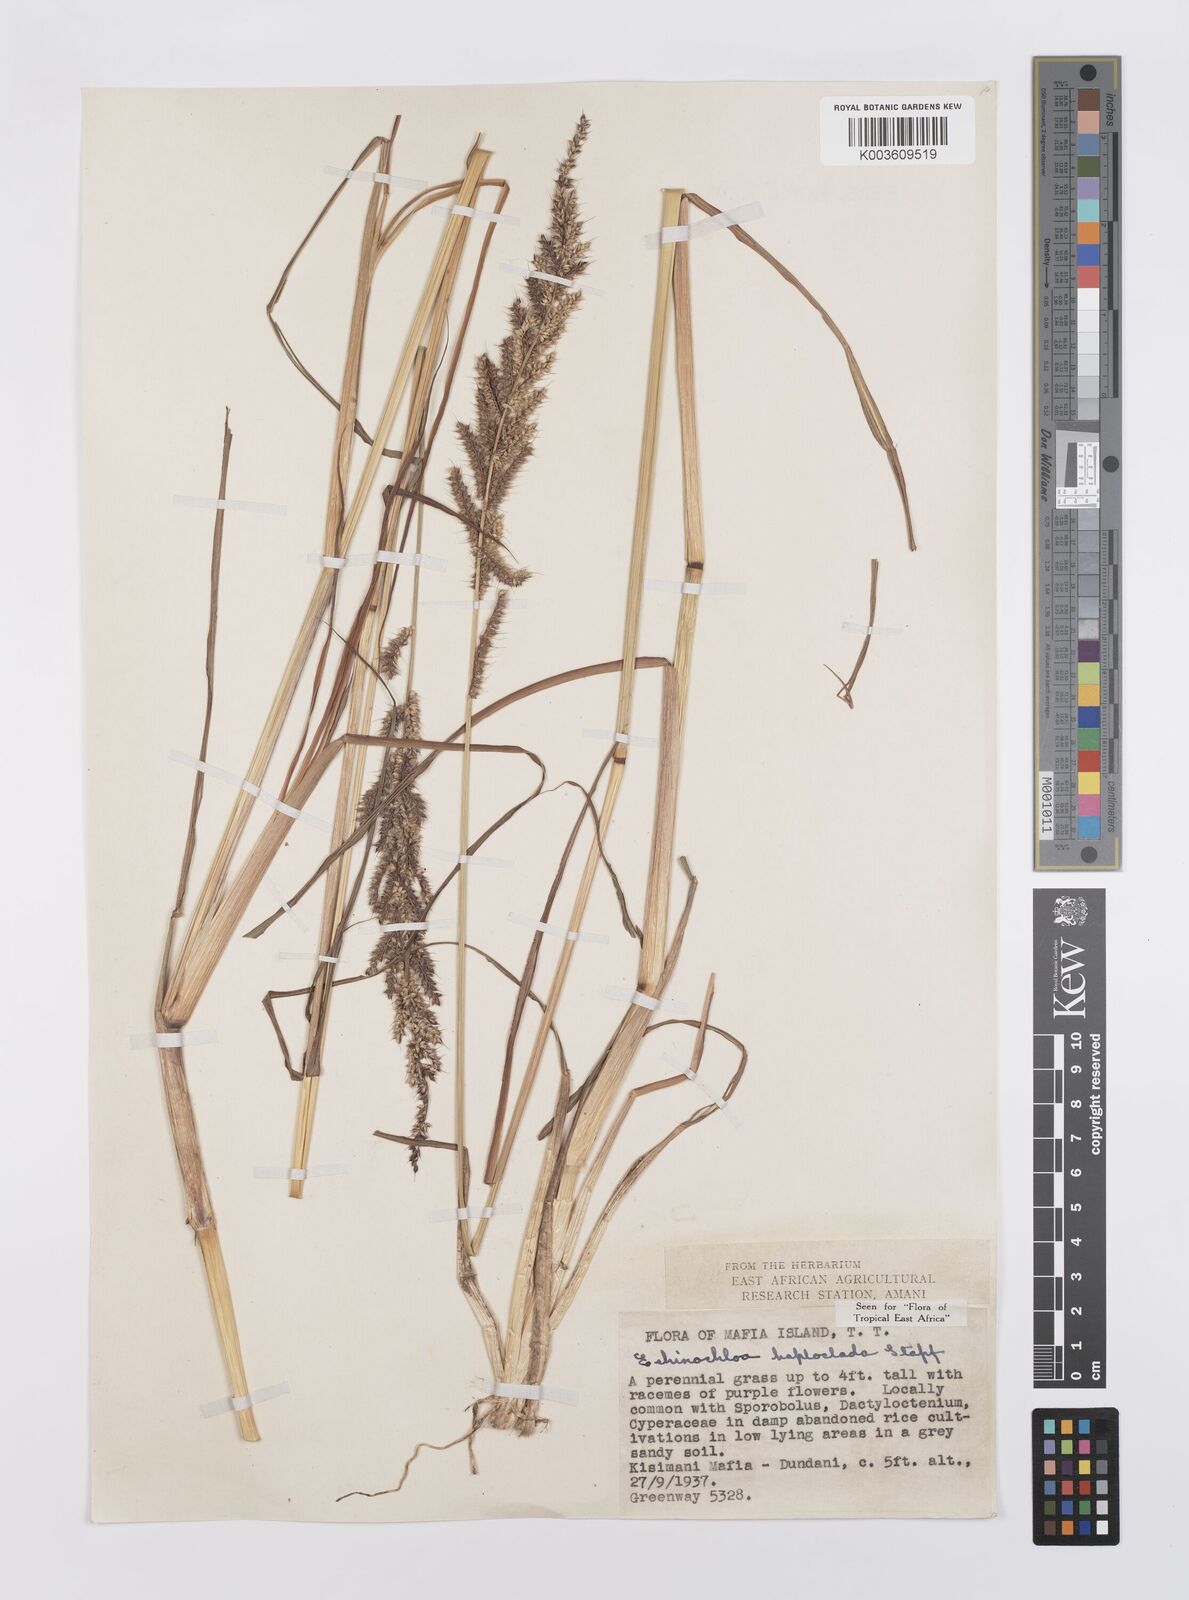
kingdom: Plantae
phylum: Tracheophyta
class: Liliopsida
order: Poales
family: Poaceae
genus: Echinochloa
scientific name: Echinochloa haploclada
